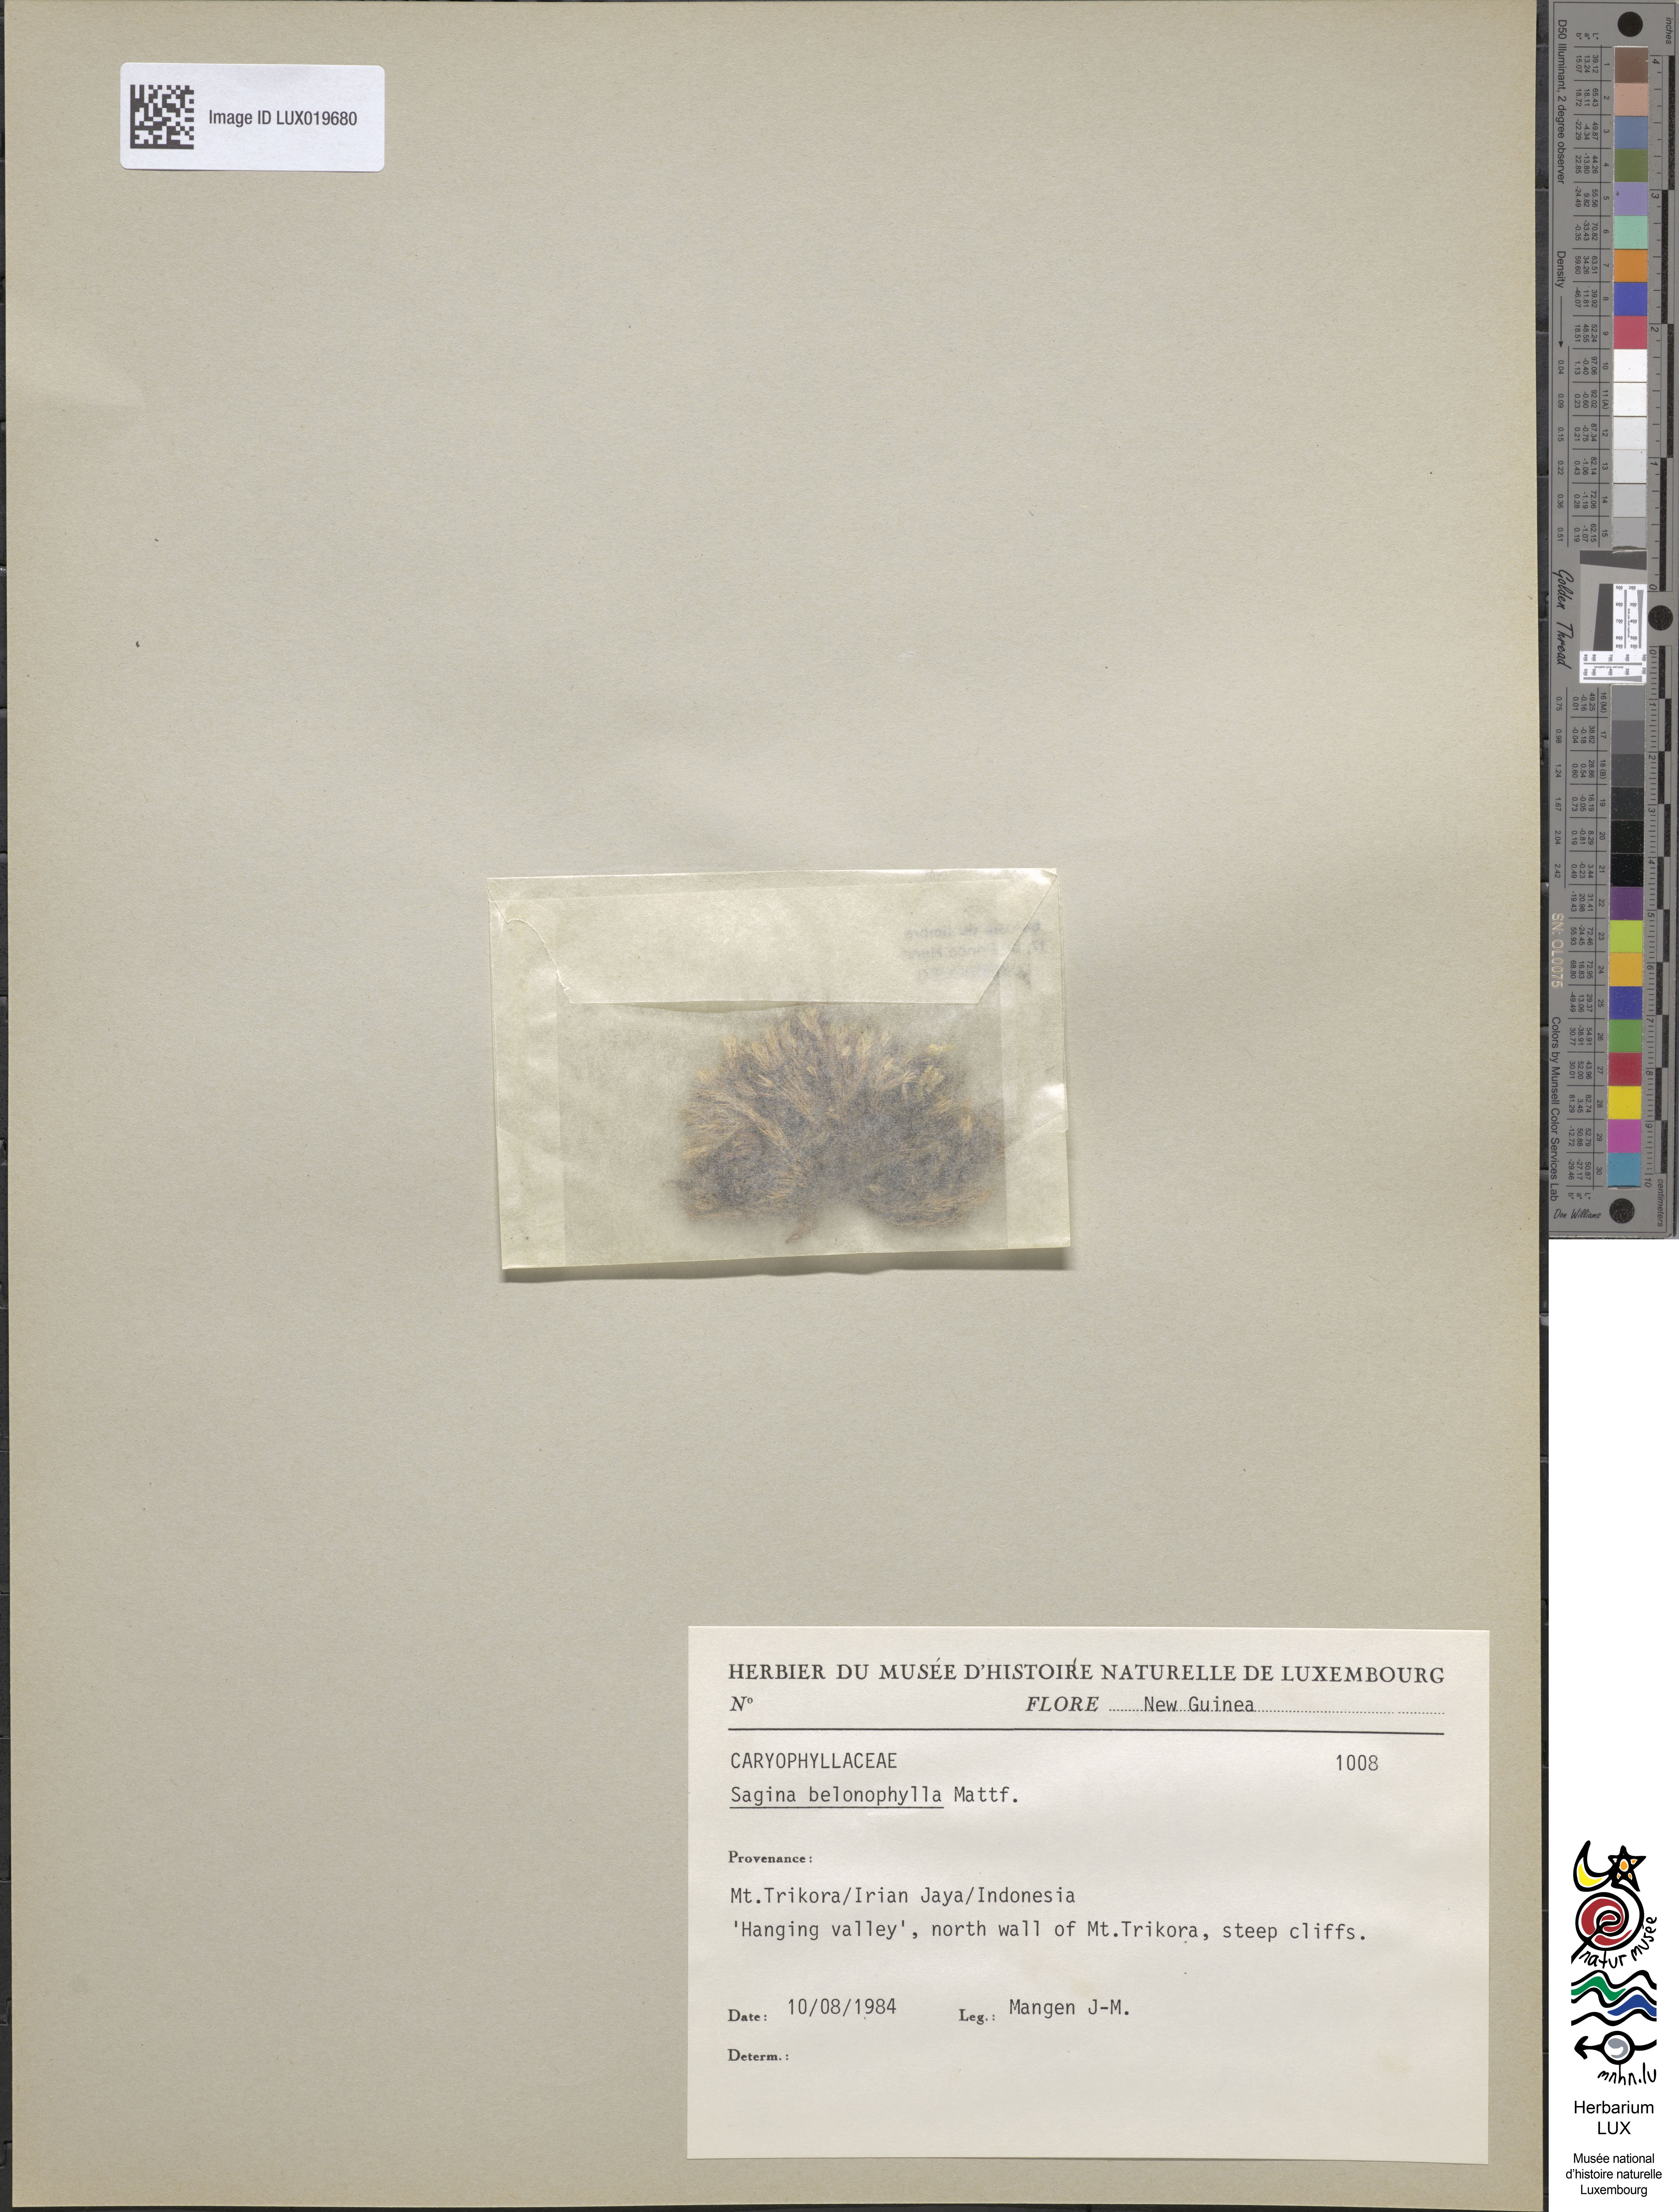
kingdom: Plantae
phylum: Tracheophyta
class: Magnoliopsida
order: Caryophyllales
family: Caryophyllaceae
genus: Sagina
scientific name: Sagina belonophylla
